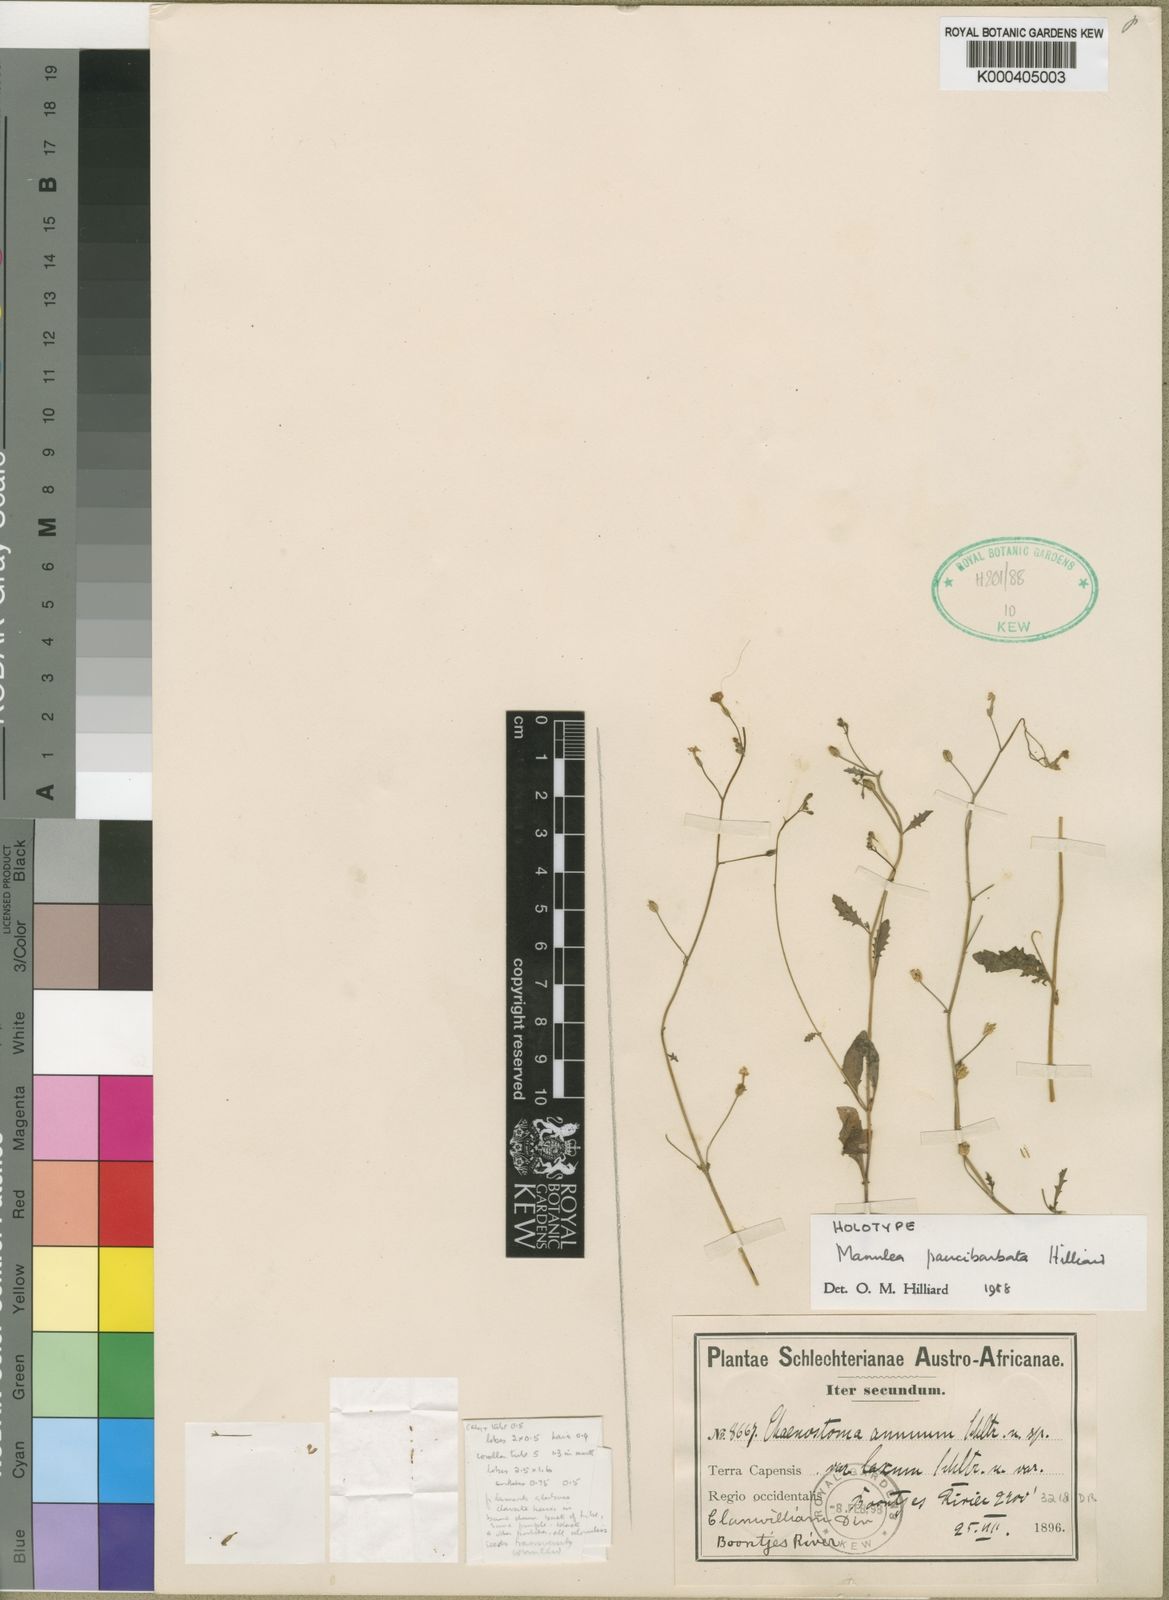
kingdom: Plantae
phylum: Tracheophyta
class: Magnoliopsida
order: Lamiales
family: Scrophulariaceae
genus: Manulea
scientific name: Manulea paucibarbata
